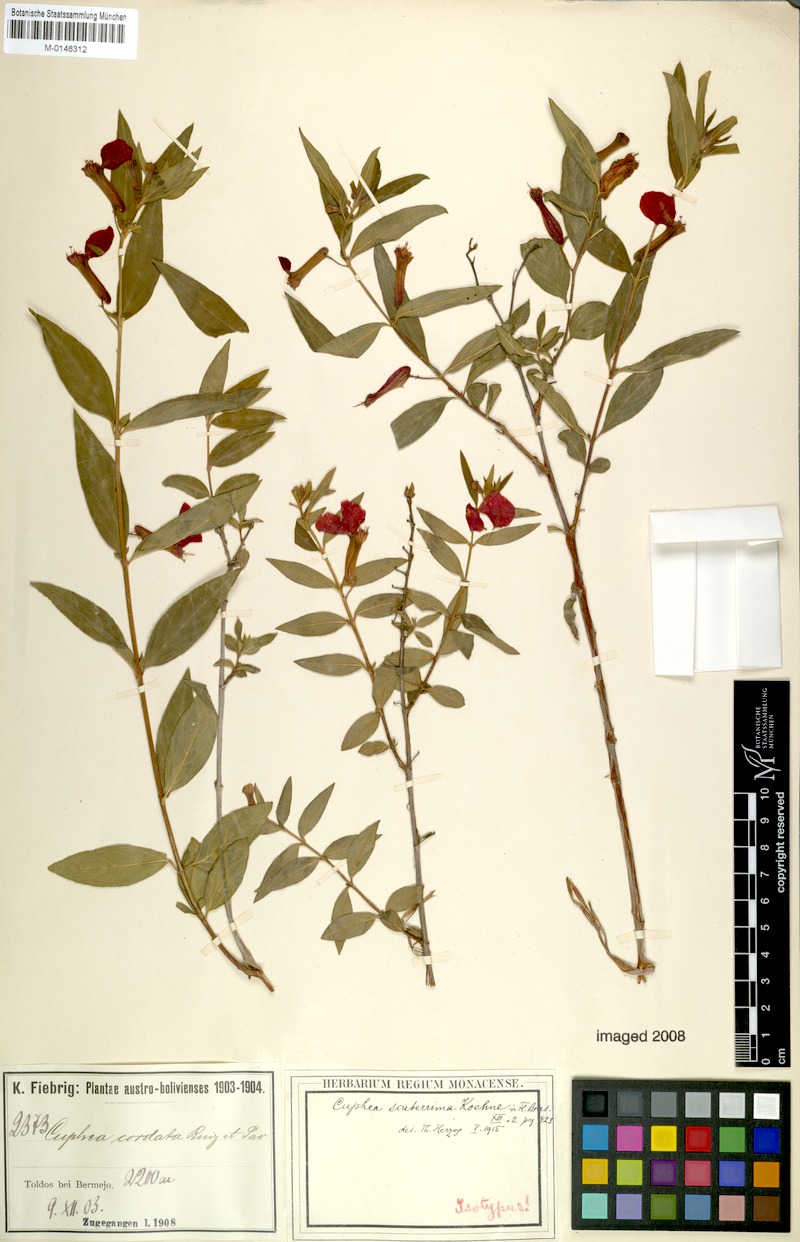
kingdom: Plantae
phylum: Tracheophyta
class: Magnoliopsida
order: Myrtales
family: Lythraceae
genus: Cuphea
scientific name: Cuphea scaberrima
